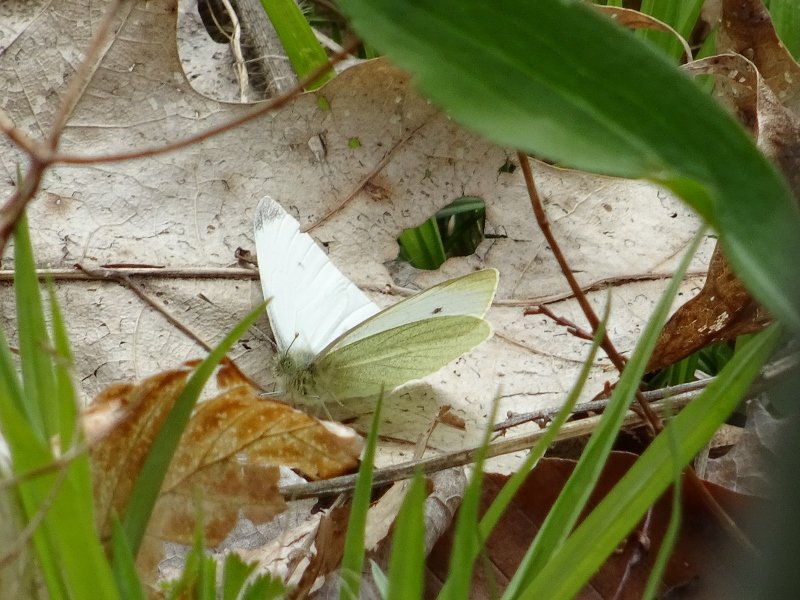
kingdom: Animalia
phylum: Arthropoda
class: Insecta
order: Lepidoptera
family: Pieridae
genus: Pieris
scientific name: Pieris rapae
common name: Cabbage White
